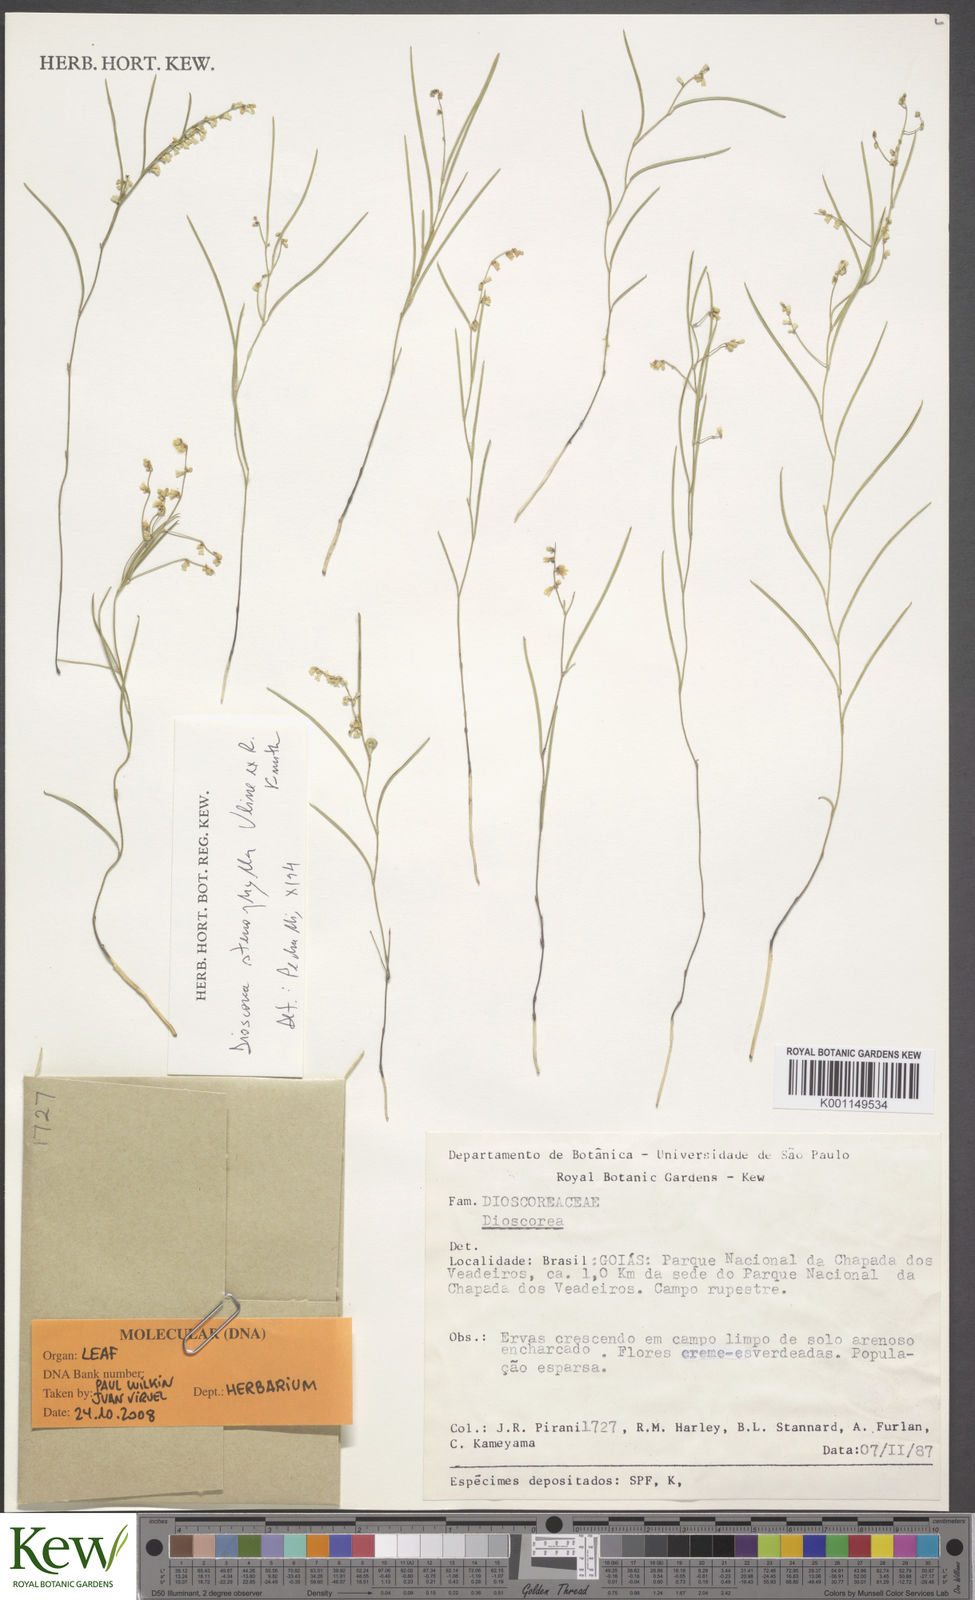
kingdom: Plantae
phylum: Tracheophyta
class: Liliopsida
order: Dioscoreales
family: Dioscoreaceae
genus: Dioscorea
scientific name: Dioscorea stenophylla
